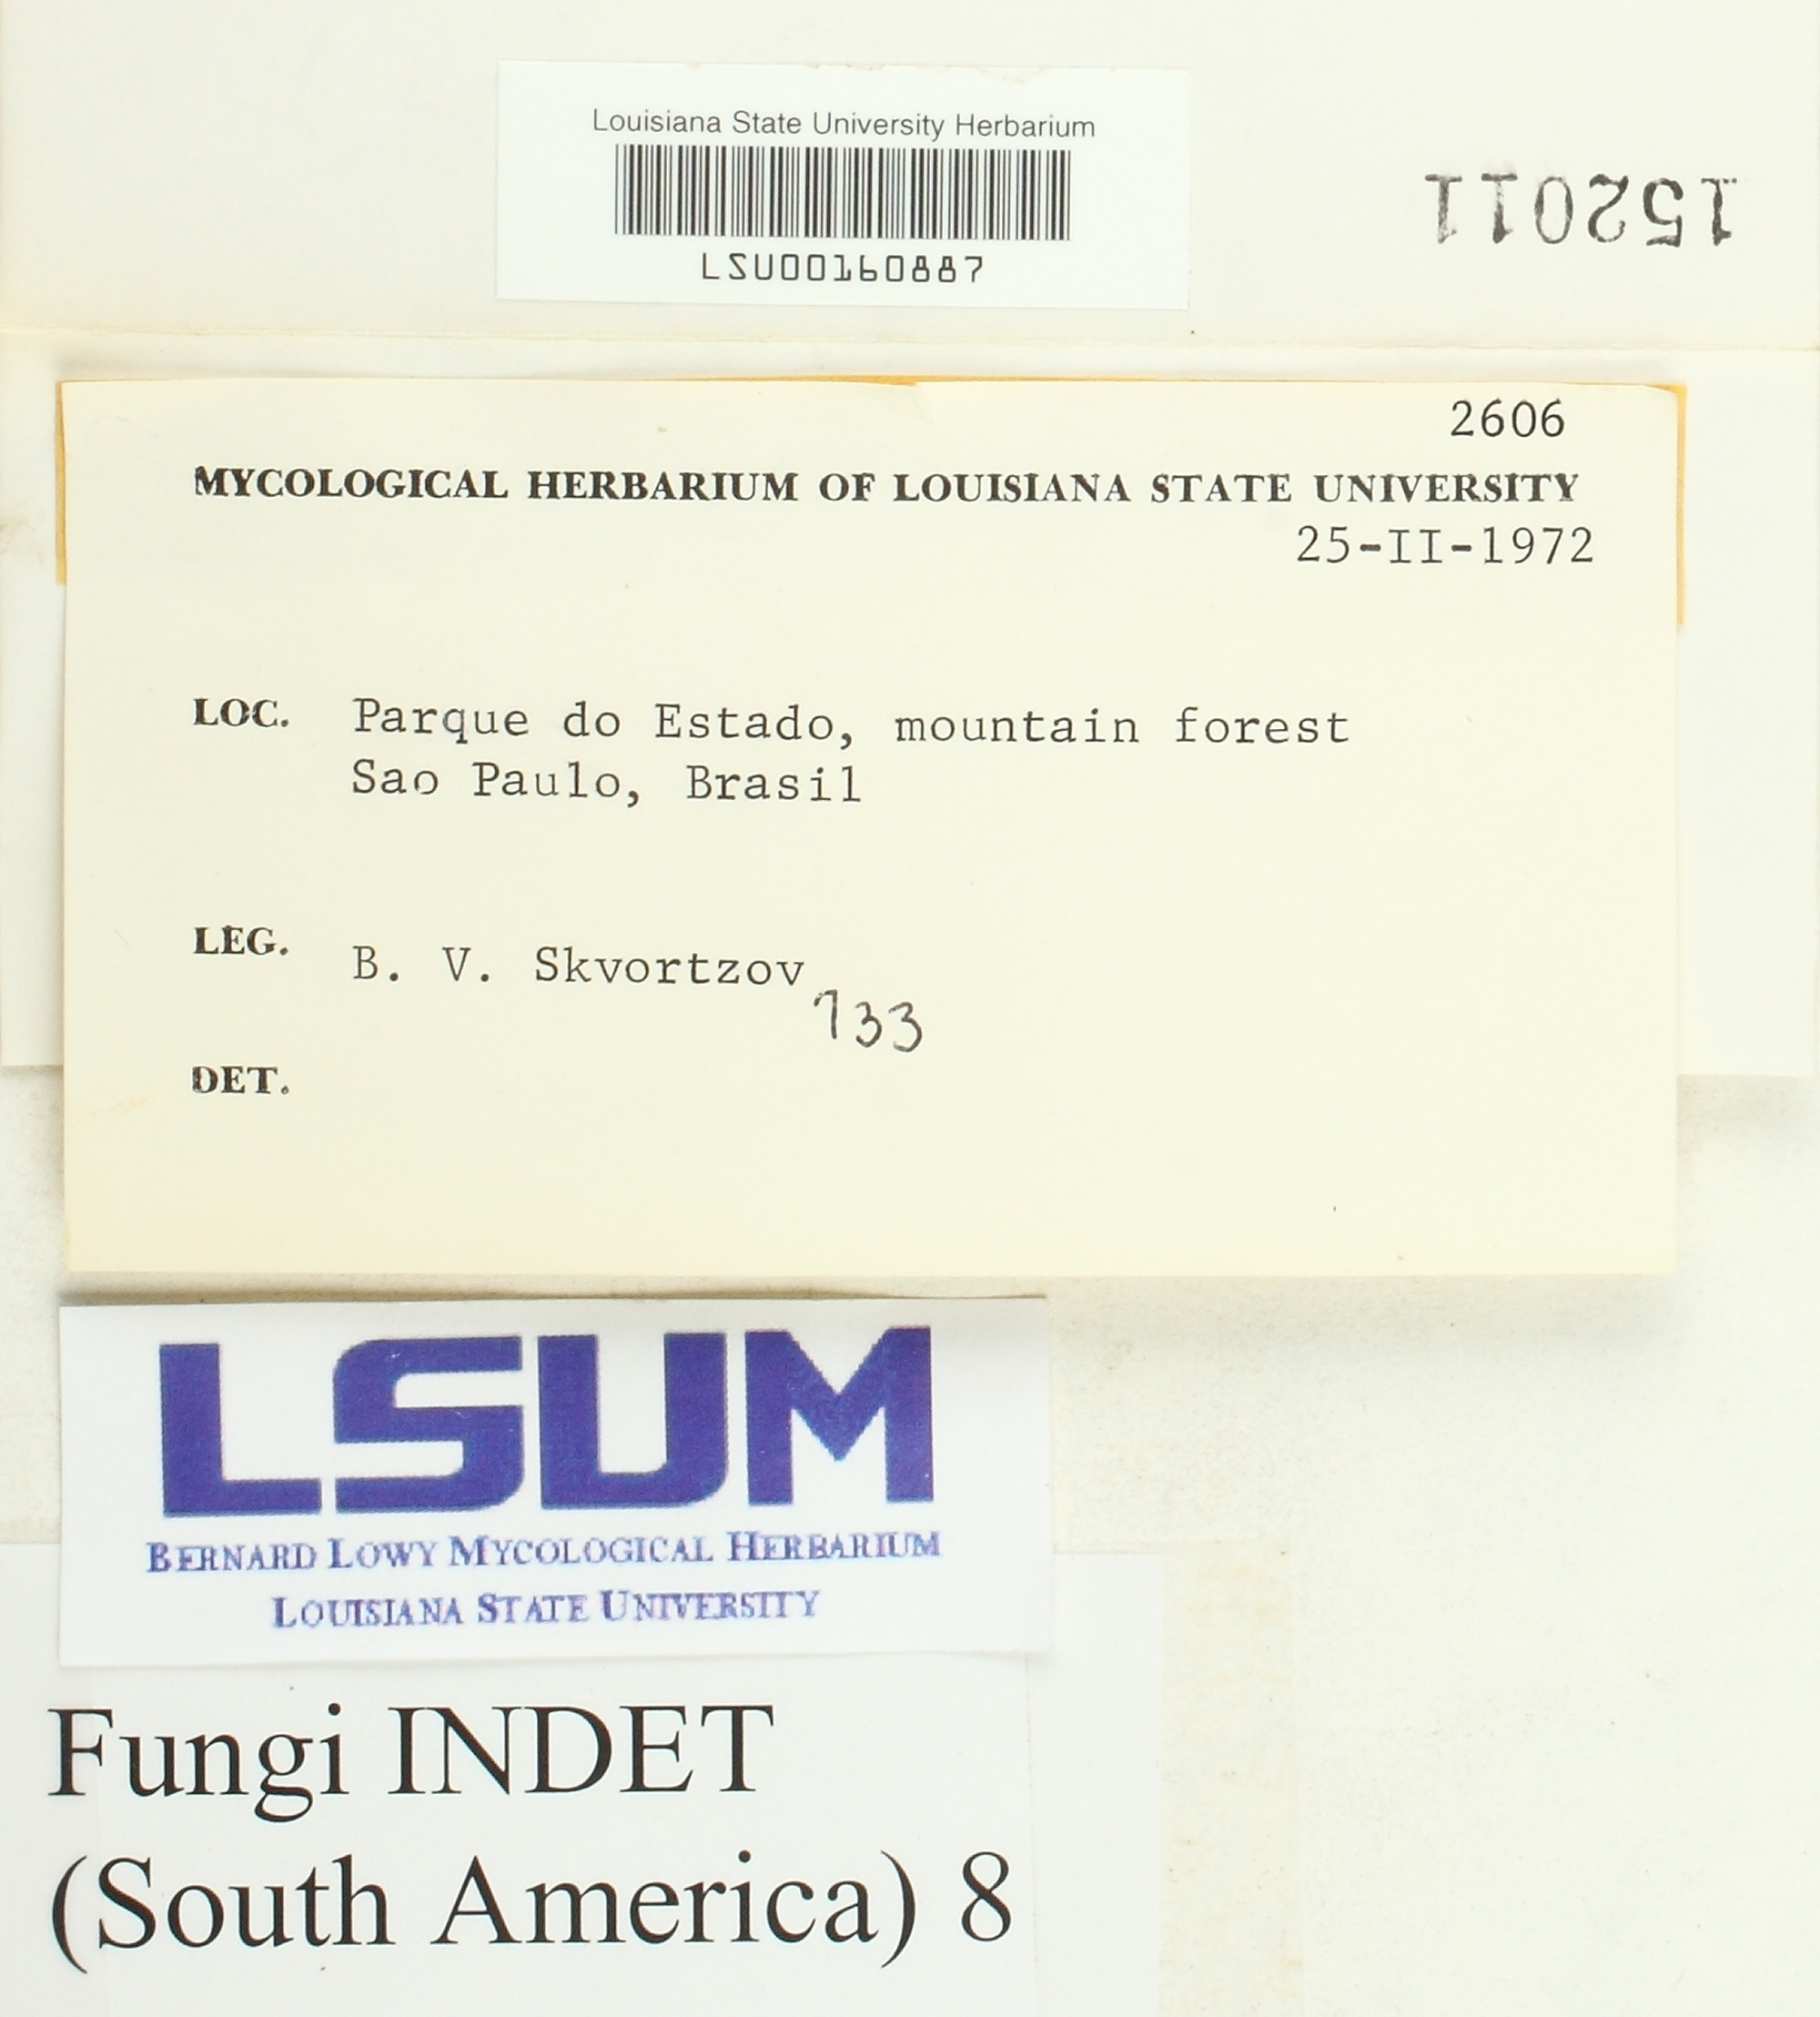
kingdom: Fungi
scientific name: Fungi
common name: Fungi
